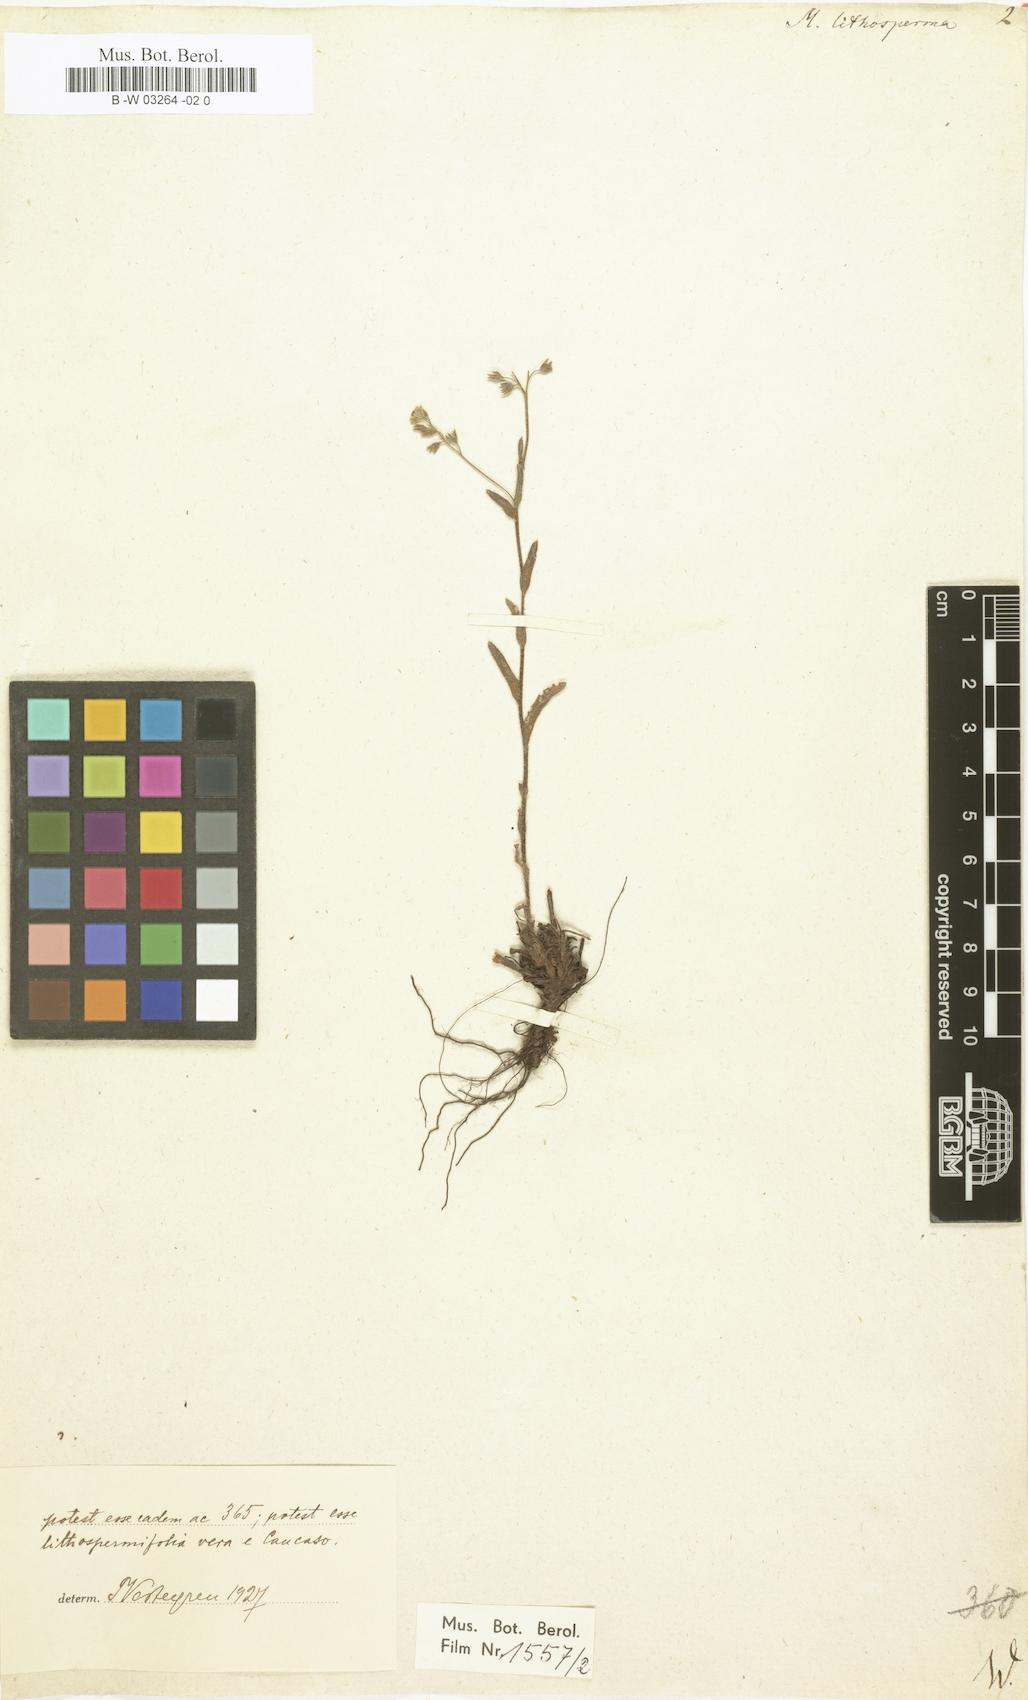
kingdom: Plantae
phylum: Tracheophyta
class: Magnoliopsida
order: Boraginales
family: Boraginaceae
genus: Myosotis
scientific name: Myosotis
